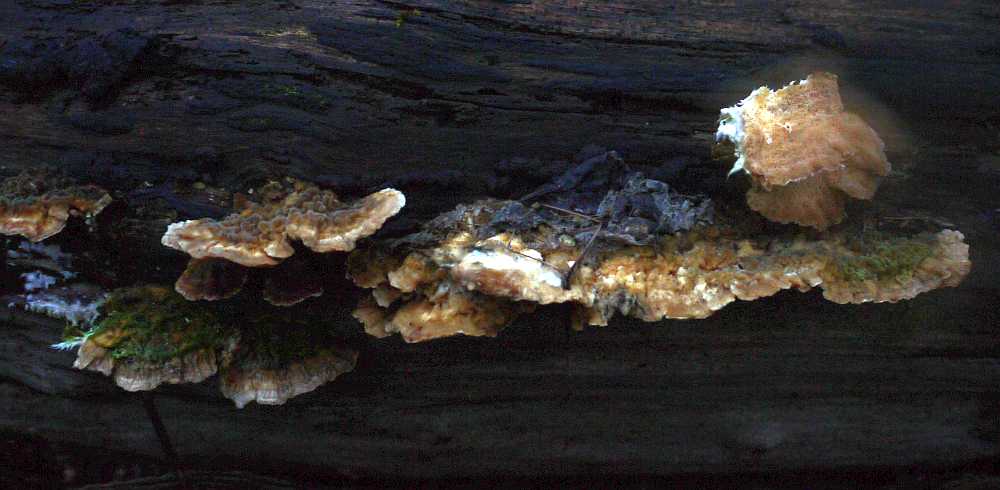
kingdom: Fungi
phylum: Basidiomycota
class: Agaricomycetes
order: Polyporales
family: Polyporaceae
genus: Trametes
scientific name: Trametes ochracea
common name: bæltet læderporesvamp
